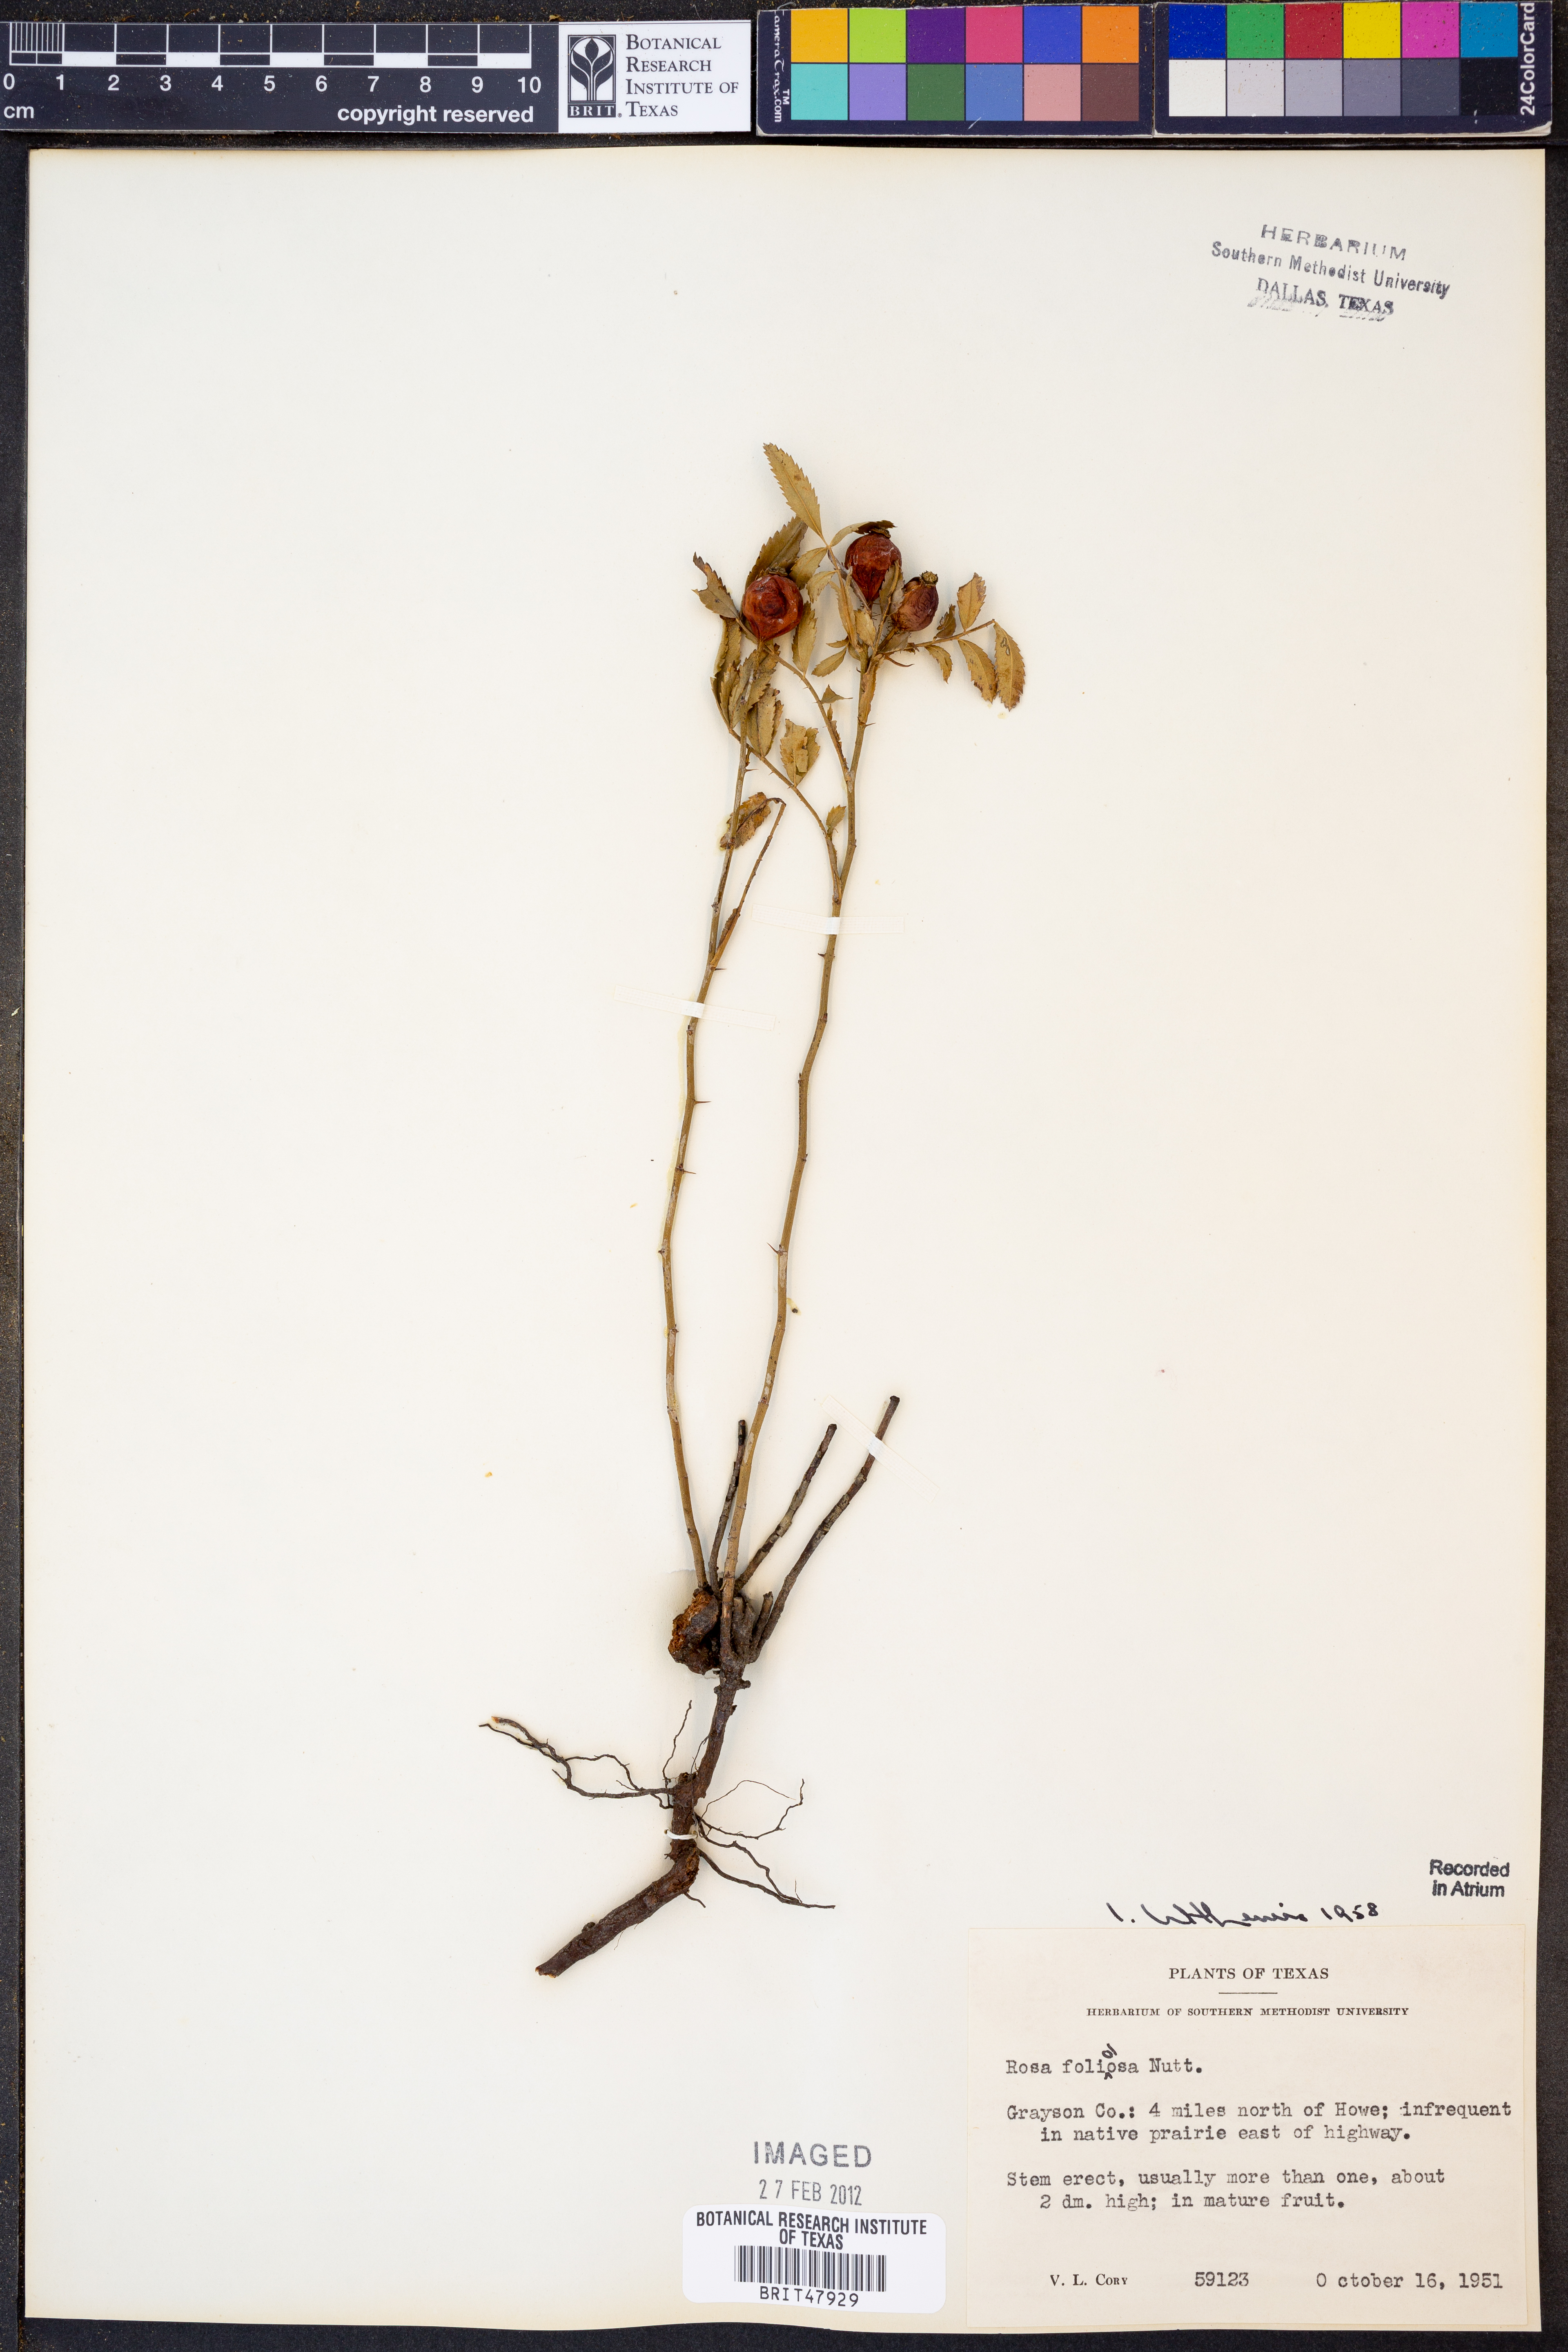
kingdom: Plantae
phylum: Tracheophyta
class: Magnoliopsida
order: Rosales
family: Rosaceae
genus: Rosa
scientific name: Rosa foliolosa
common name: White prairie rose
